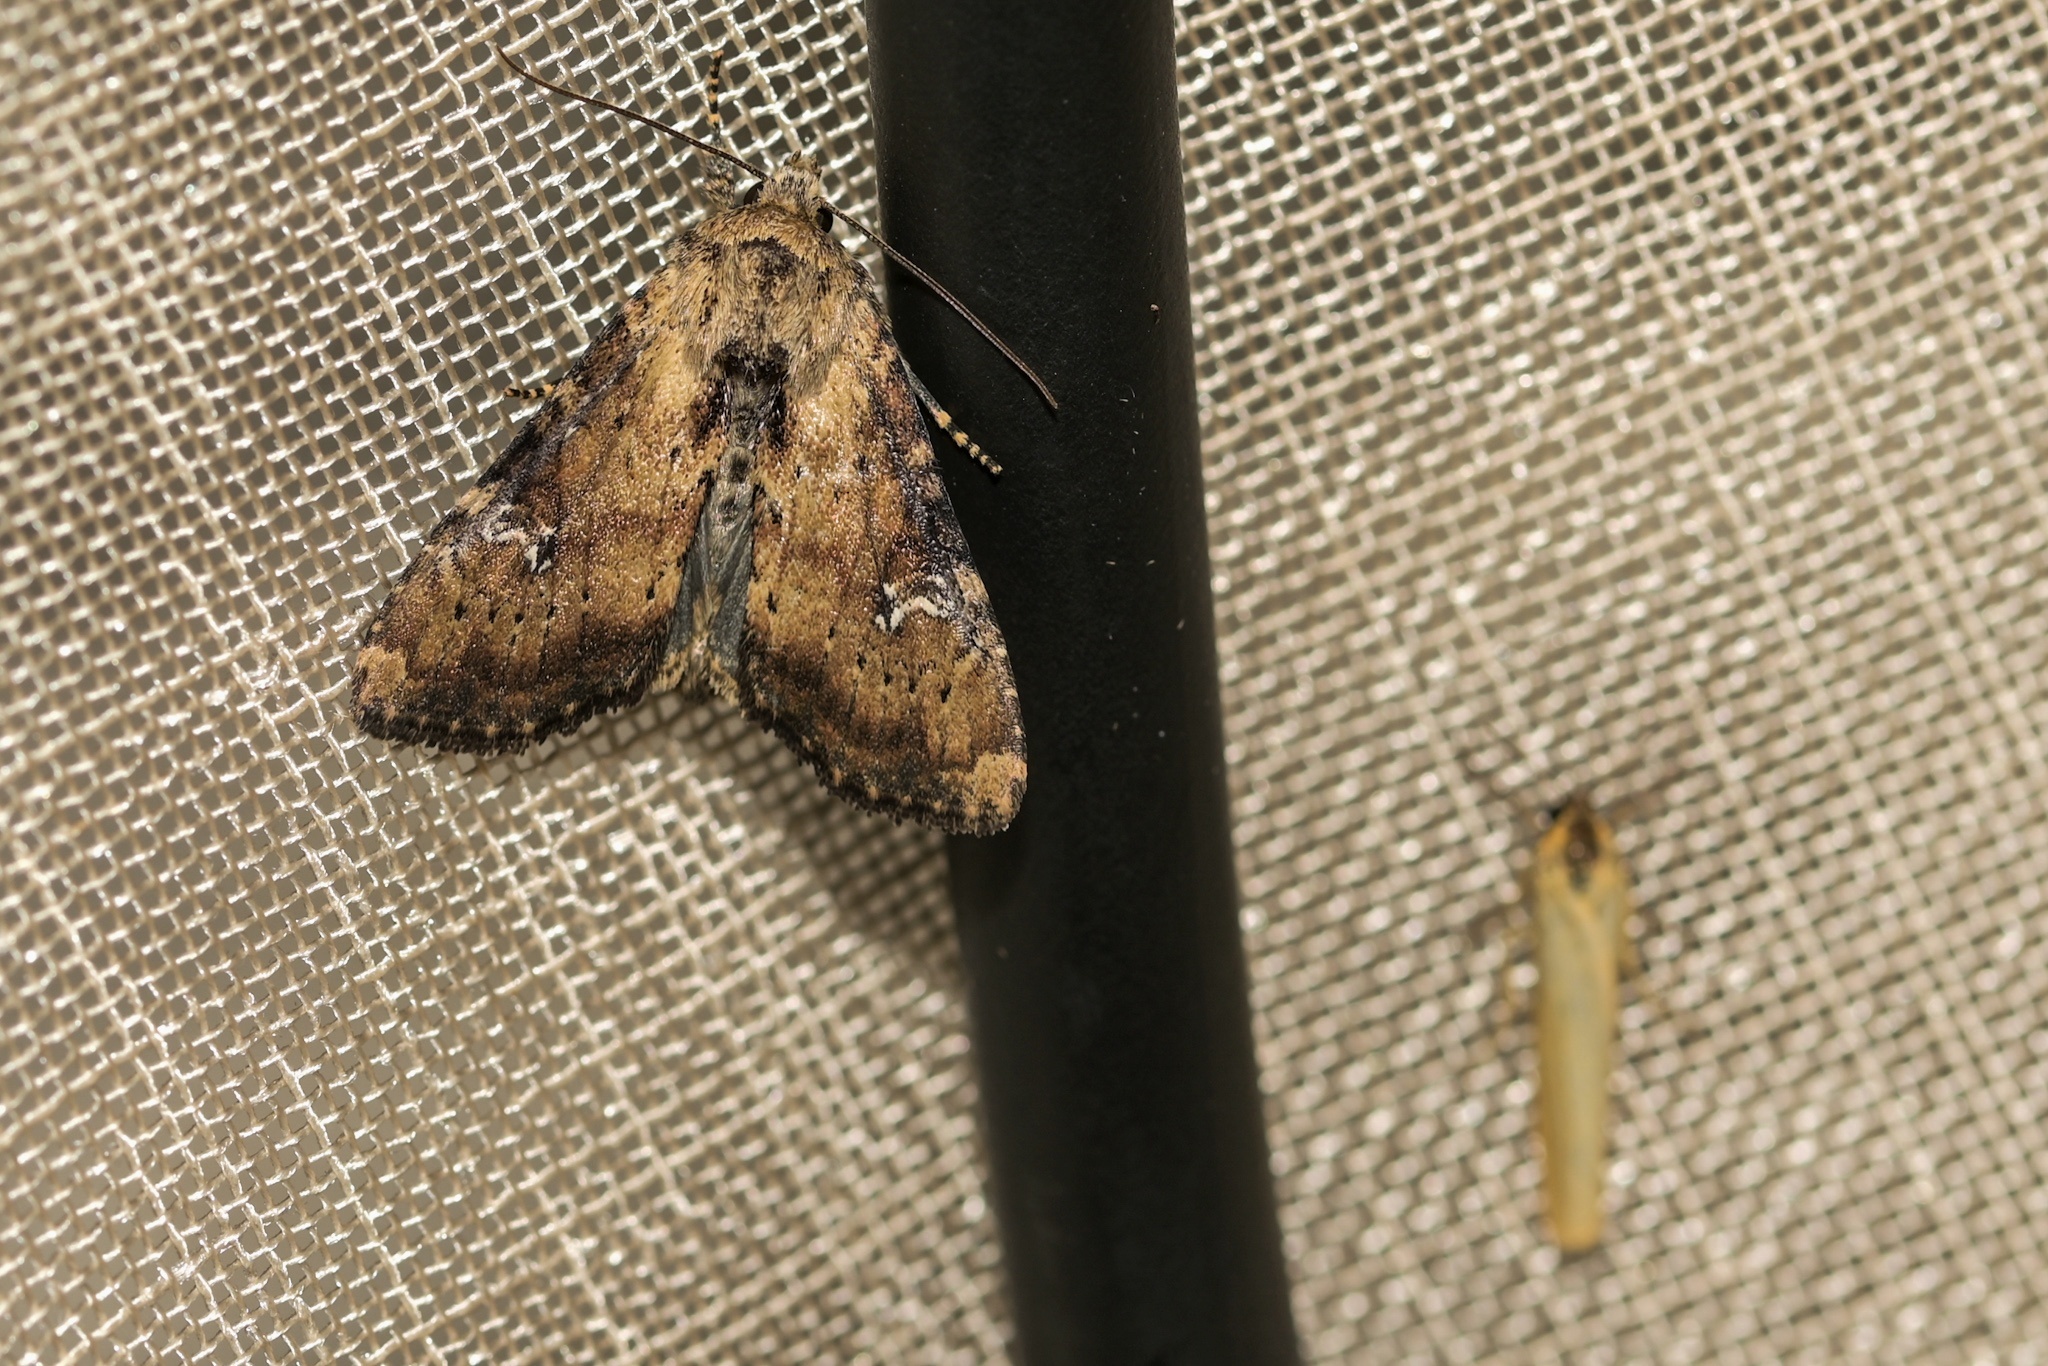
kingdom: Animalia
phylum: Arthropoda
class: Insecta
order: Lepidoptera
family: Noctuidae
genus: Loscopia
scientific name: Loscopia scolopacina
